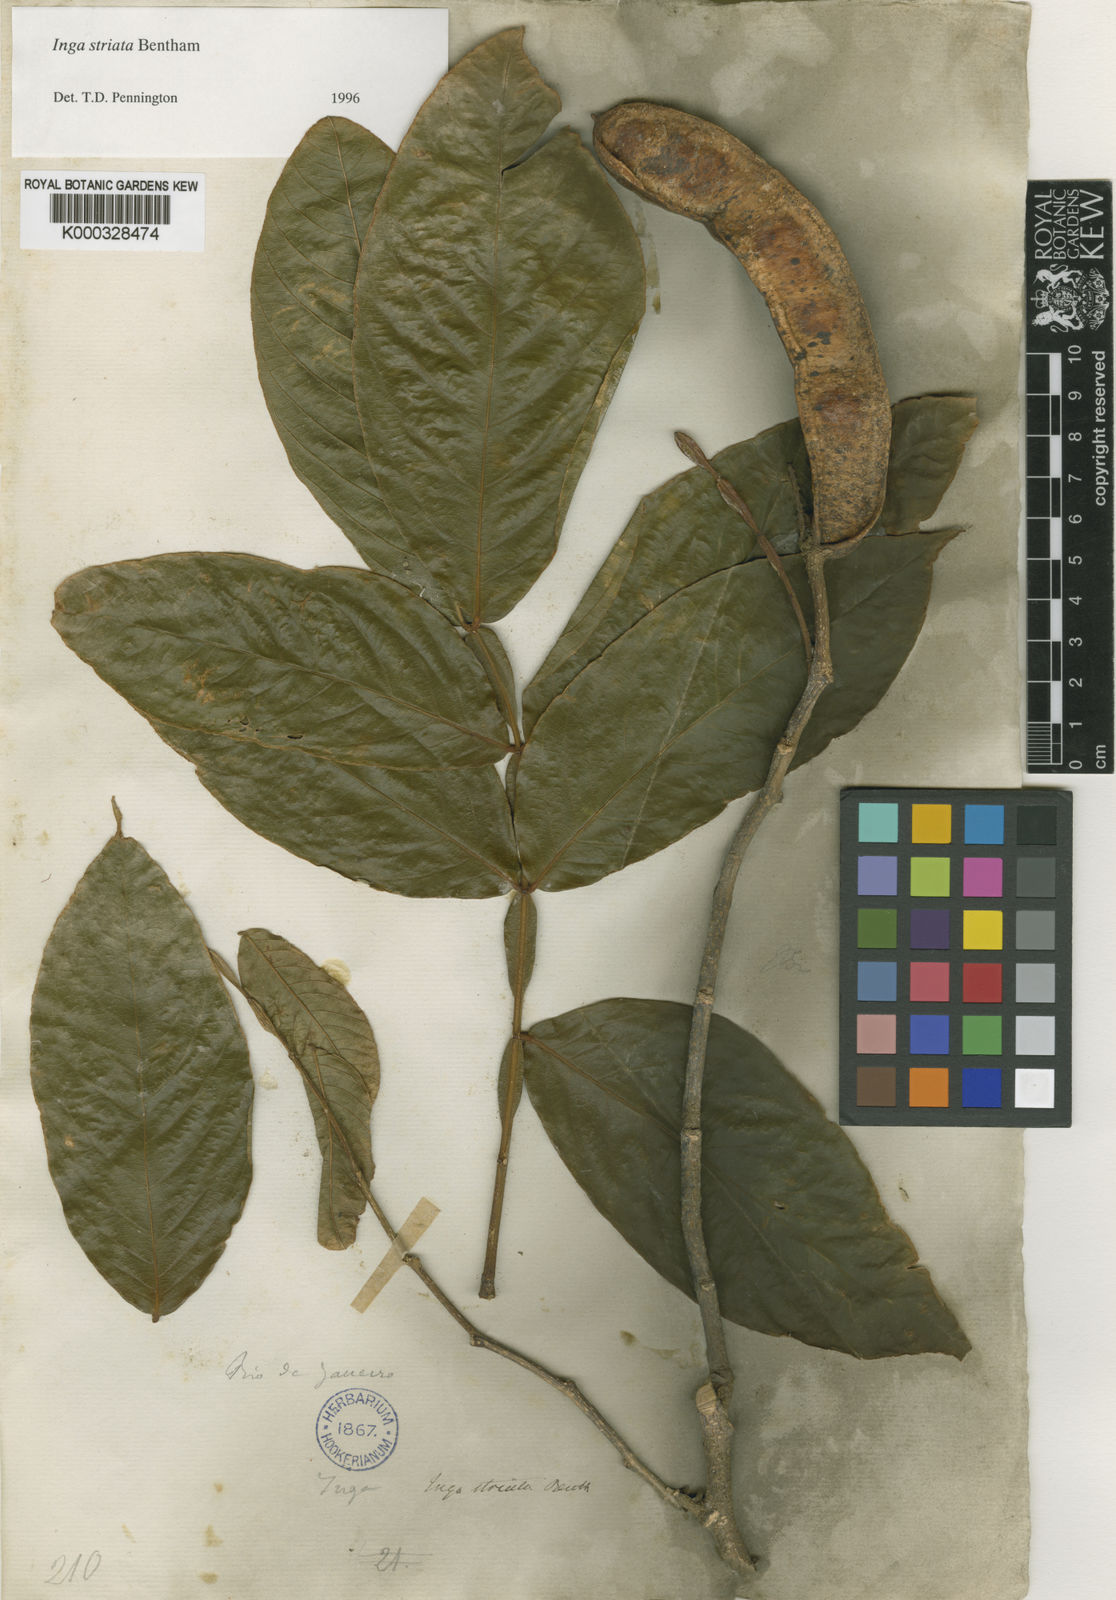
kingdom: Plantae
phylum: Tracheophyta
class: Magnoliopsida
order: Fabales
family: Fabaceae
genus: Inga
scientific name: Inga striata
